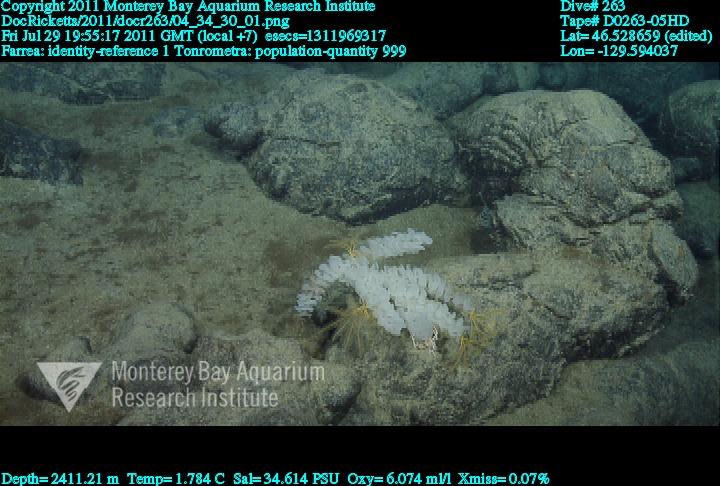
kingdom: Animalia
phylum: Porifera
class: Hexactinellida
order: Sceptrulophora
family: Farreidae
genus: Farrea
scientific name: Farrea
